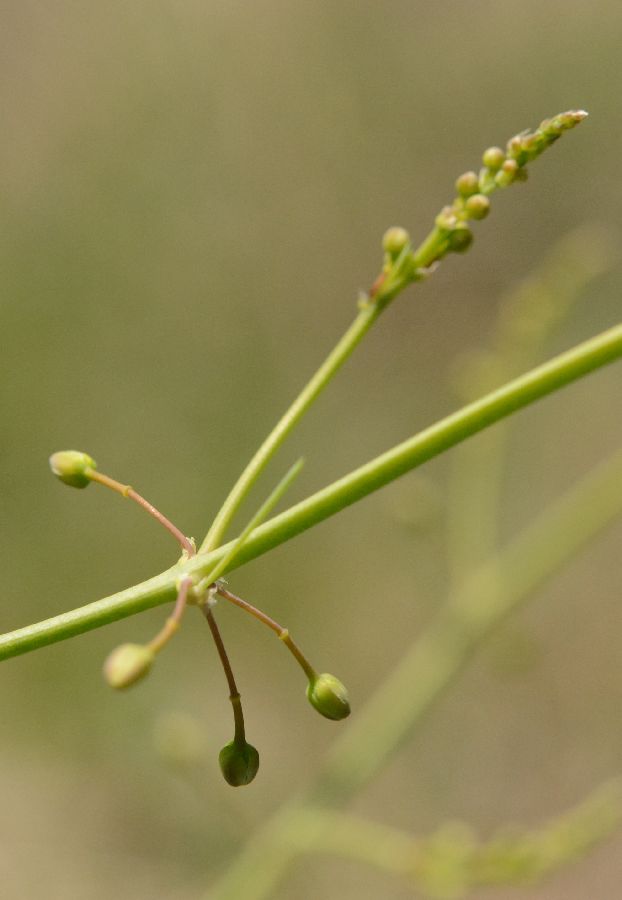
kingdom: Plantae
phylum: Tracheophyta
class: Liliopsida
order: Asparagales
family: Asparagaceae
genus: Asparagus
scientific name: Asparagus officinalis
